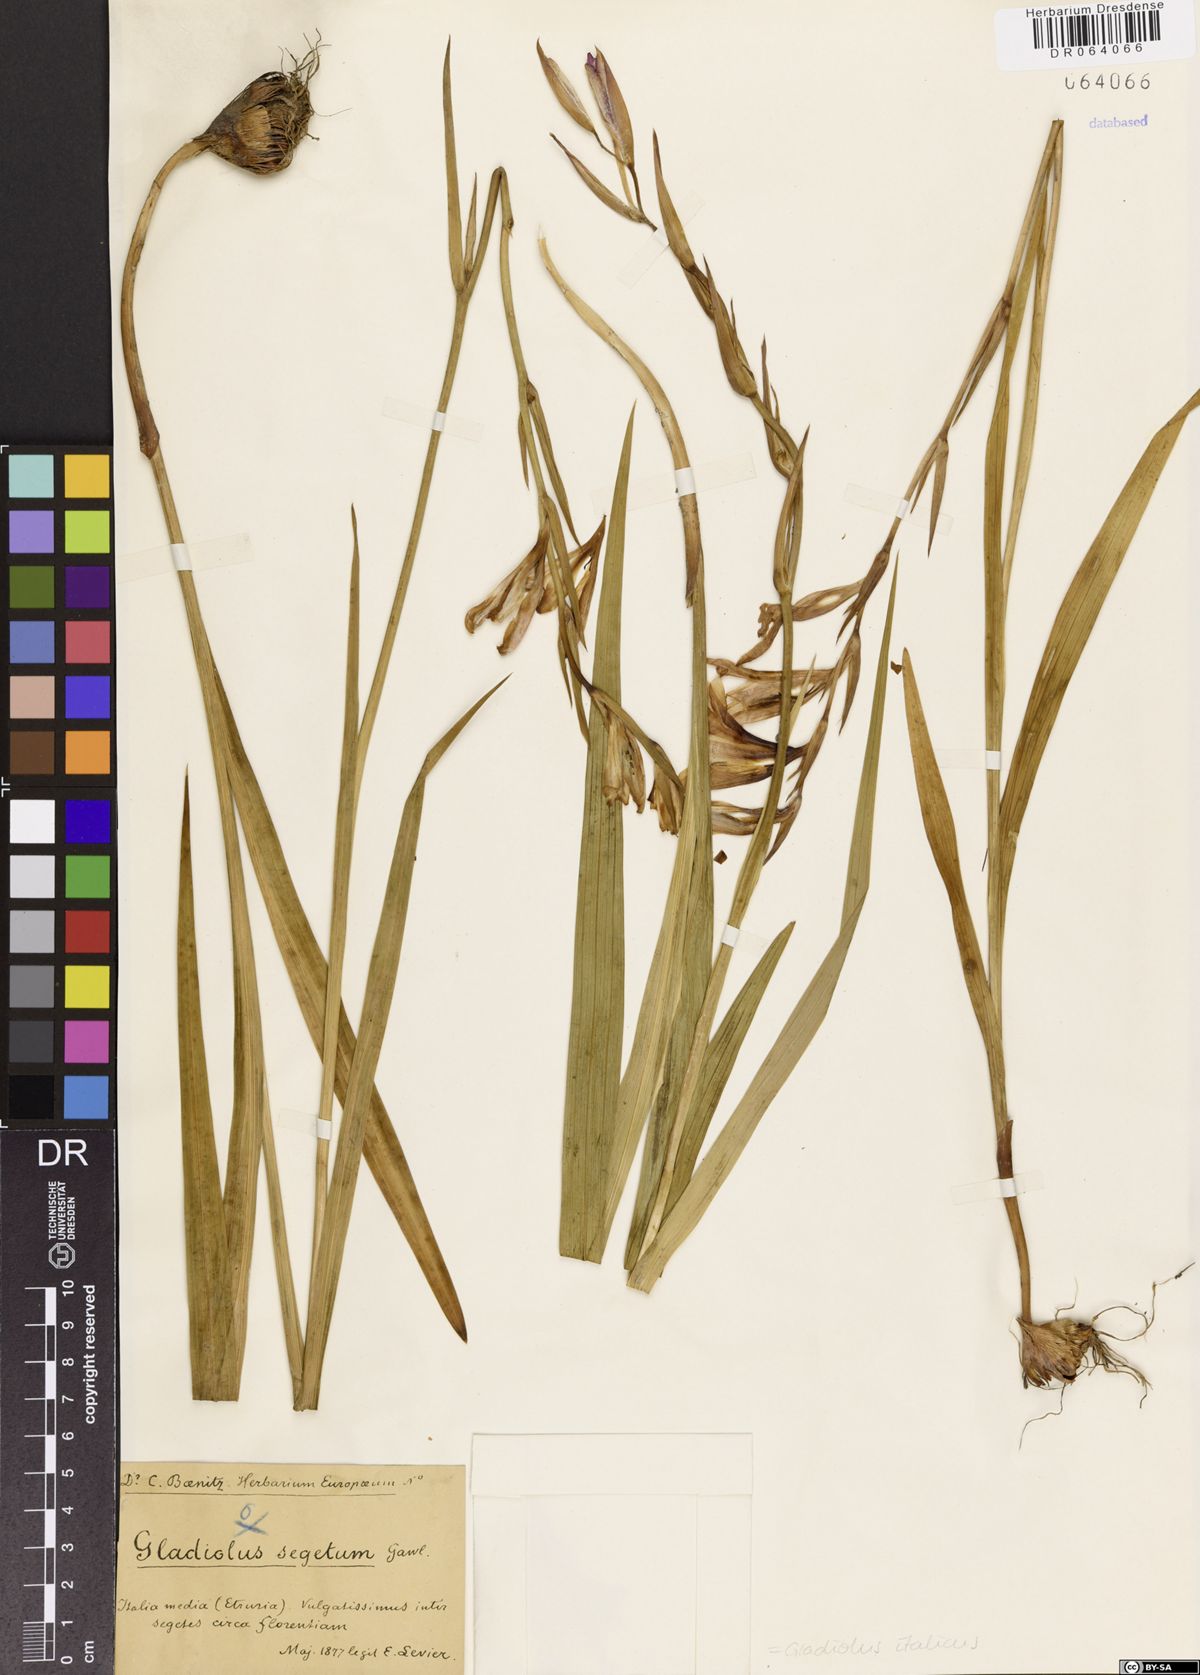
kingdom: Plantae
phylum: Tracheophyta
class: Liliopsida
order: Asparagales
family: Iridaceae
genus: Gladiolus
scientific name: Gladiolus italicus
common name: Field gladiolus
